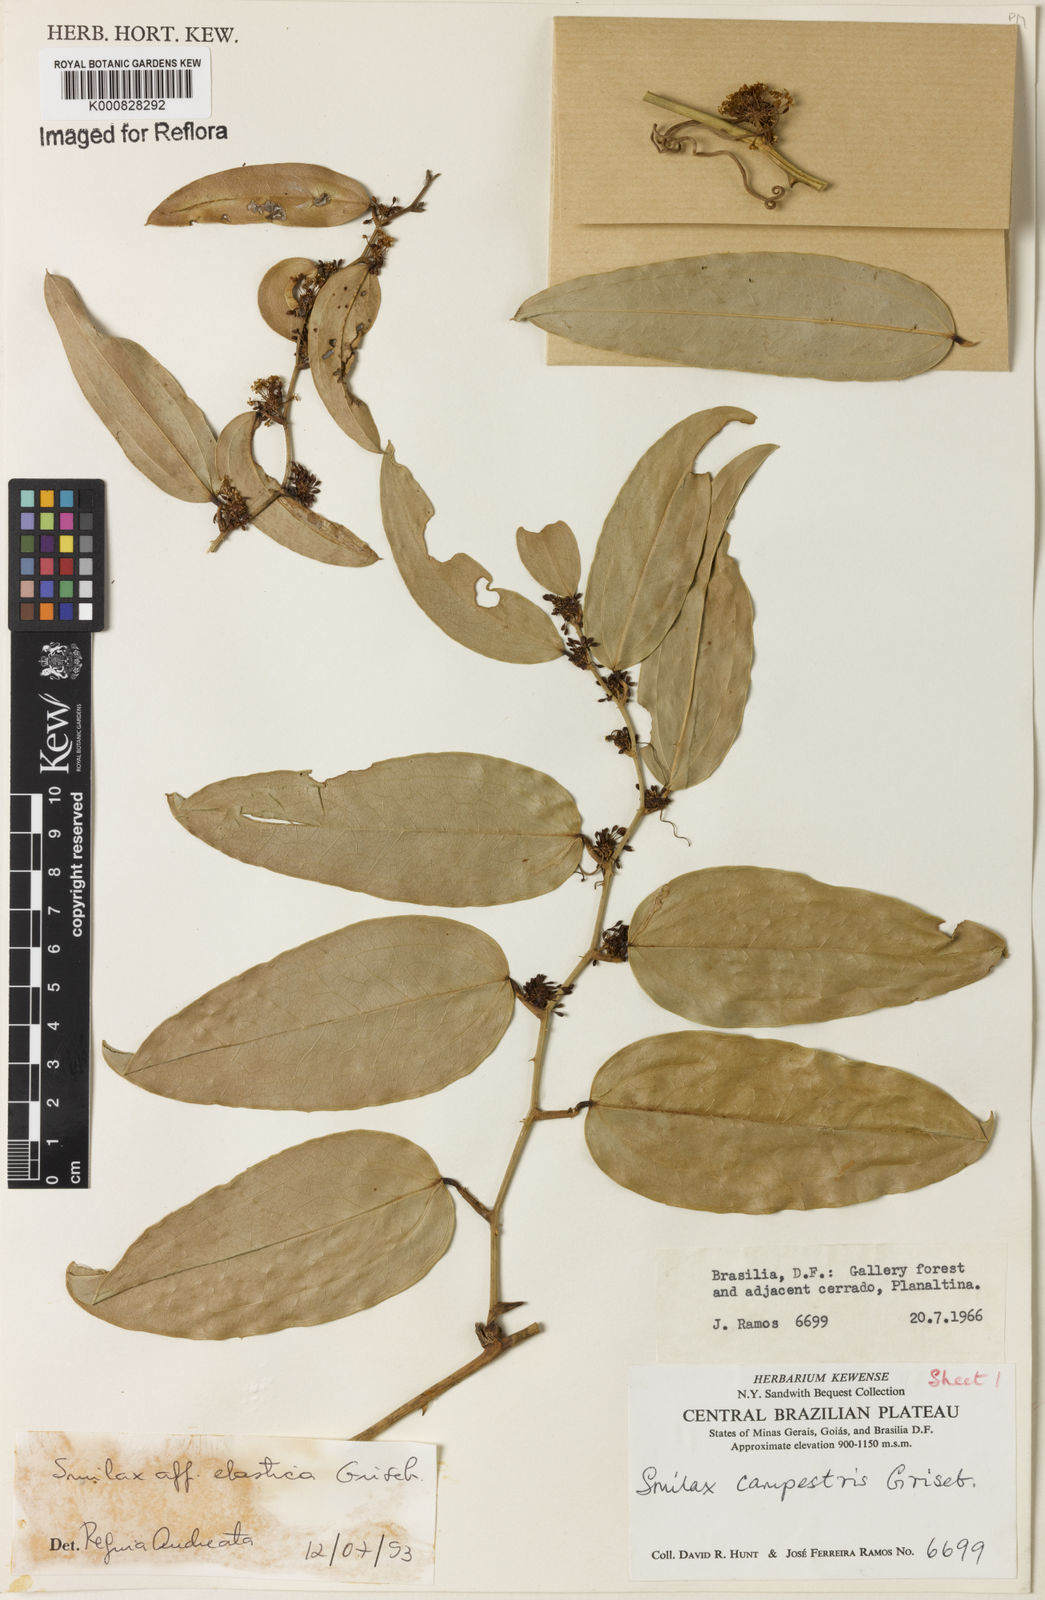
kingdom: Plantae
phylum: Tracheophyta
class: Liliopsida
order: Liliales
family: Smilacaceae
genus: Smilax
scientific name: Smilax elastica
